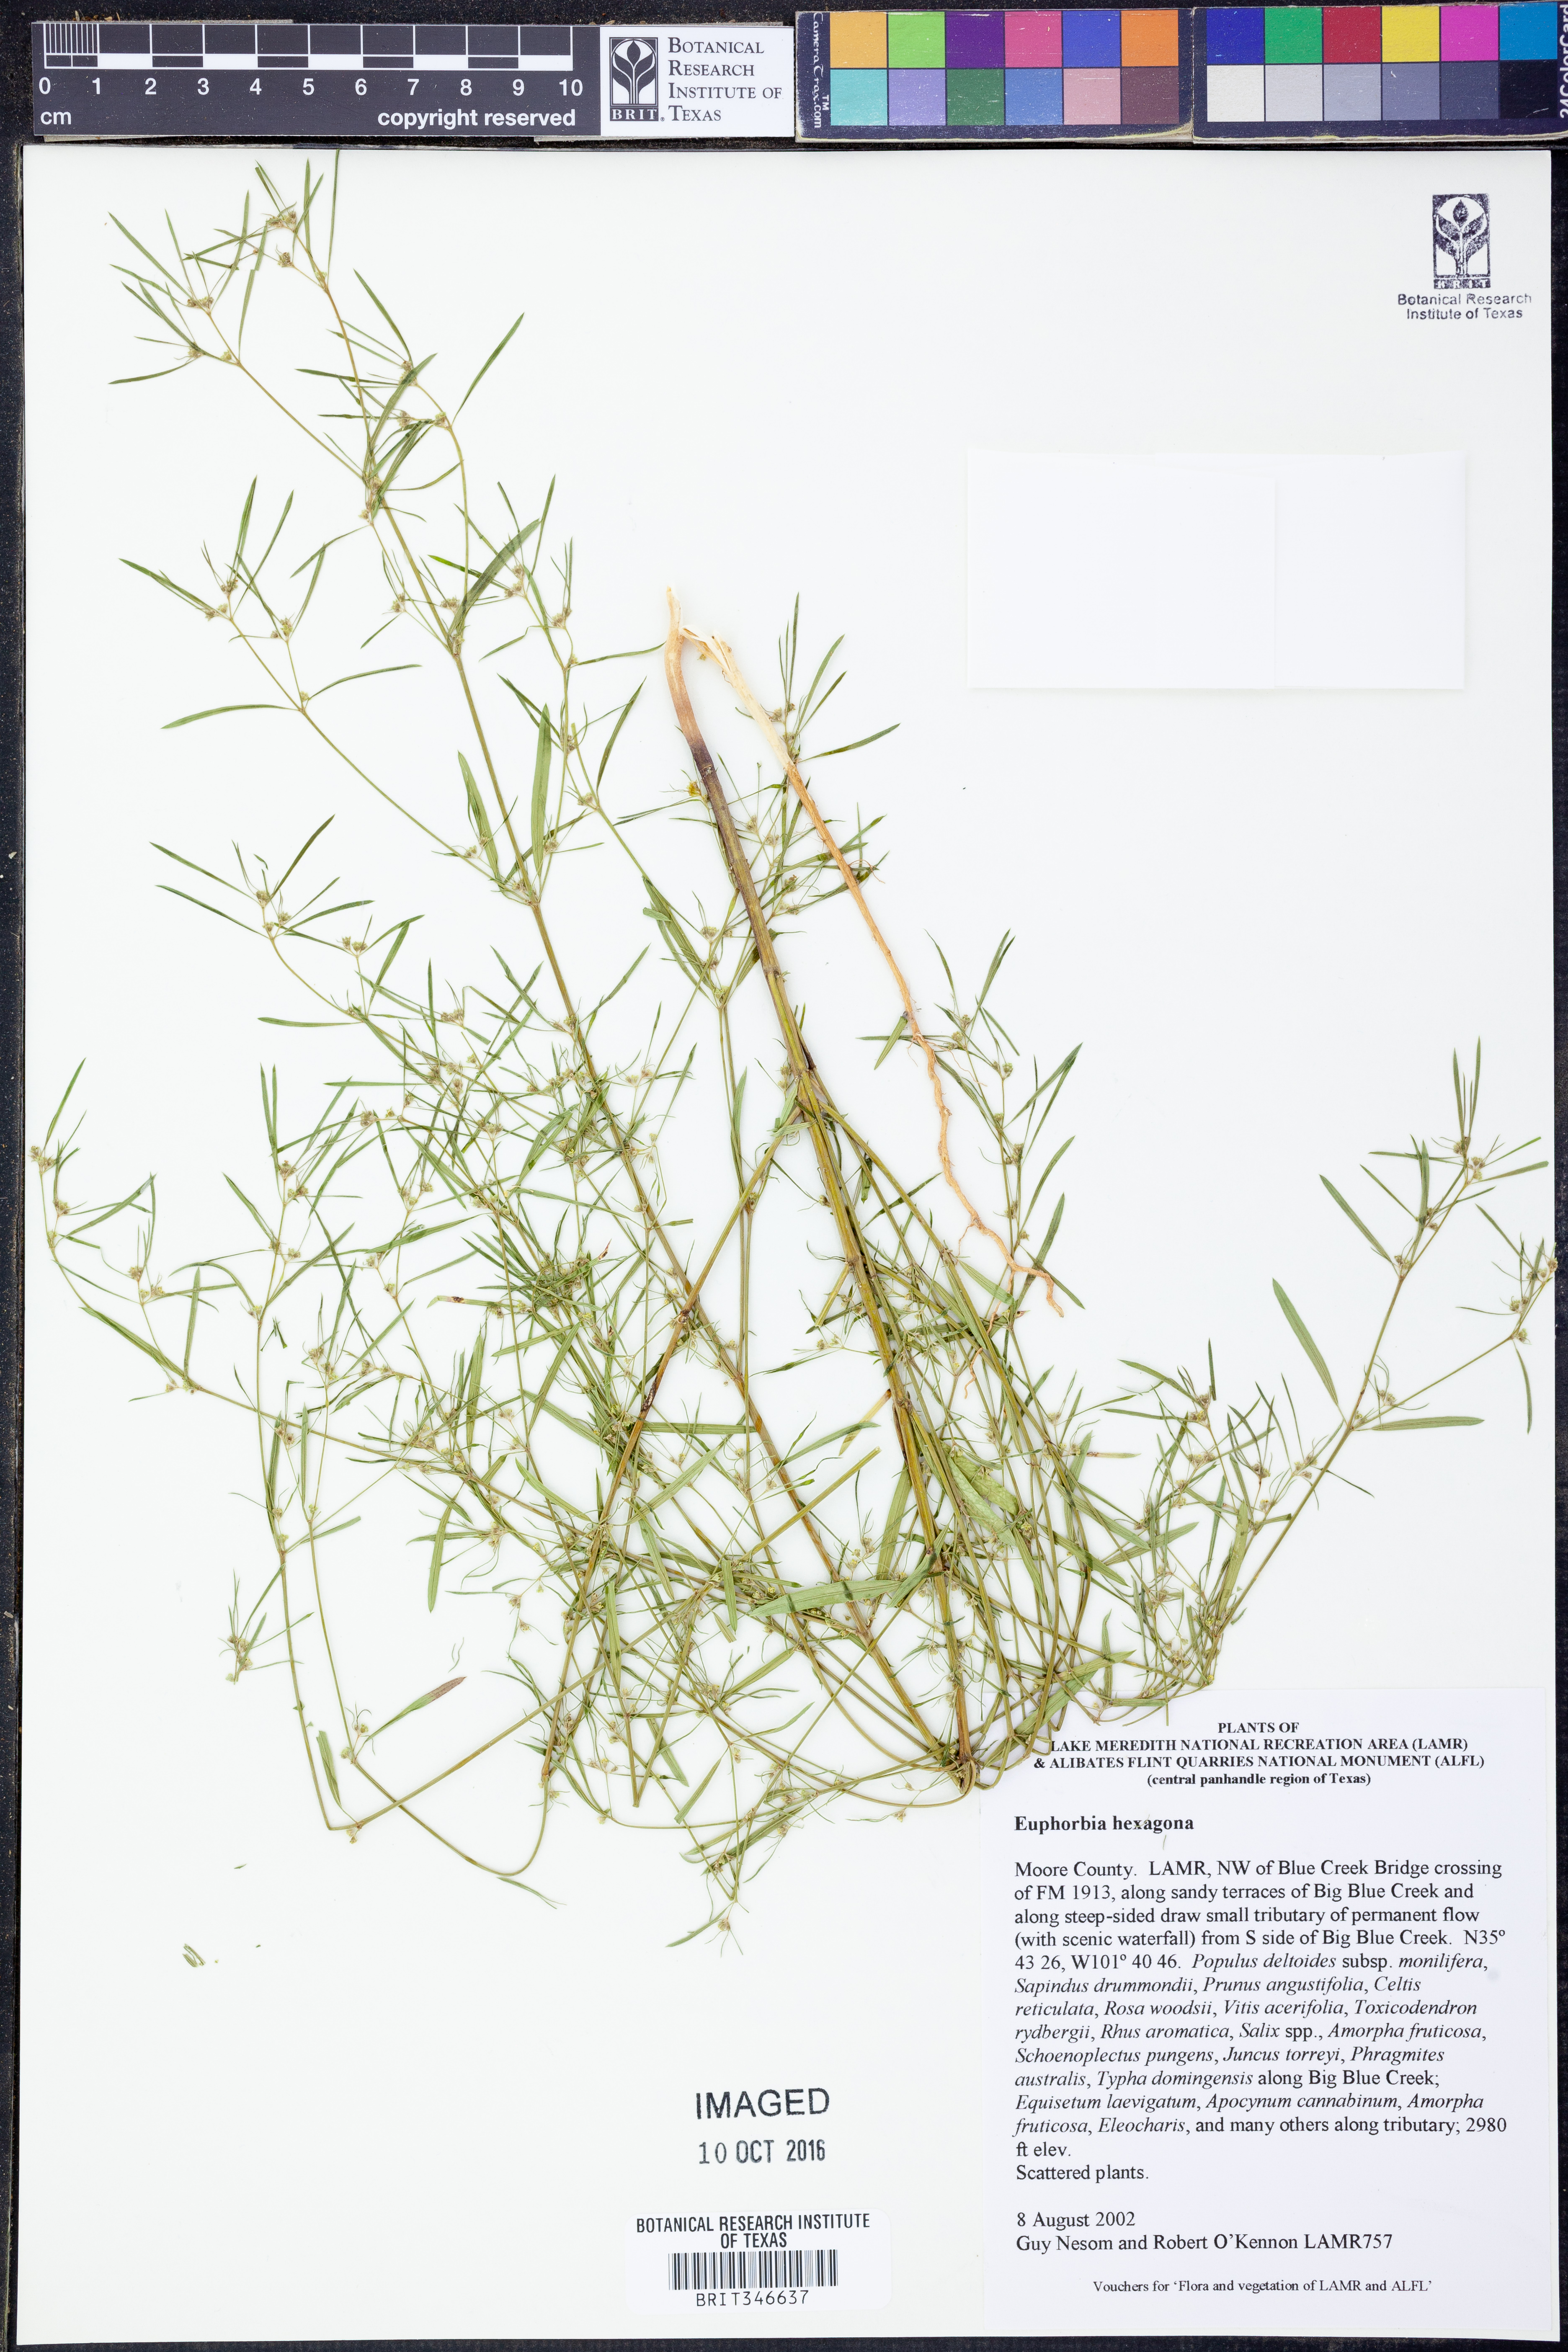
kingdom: Plantae
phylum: Tracheophyta
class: Magnoliopsida
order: Malpighiales
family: Euphorbiaceae
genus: Euphorbia
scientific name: Euphorbia hexagona
